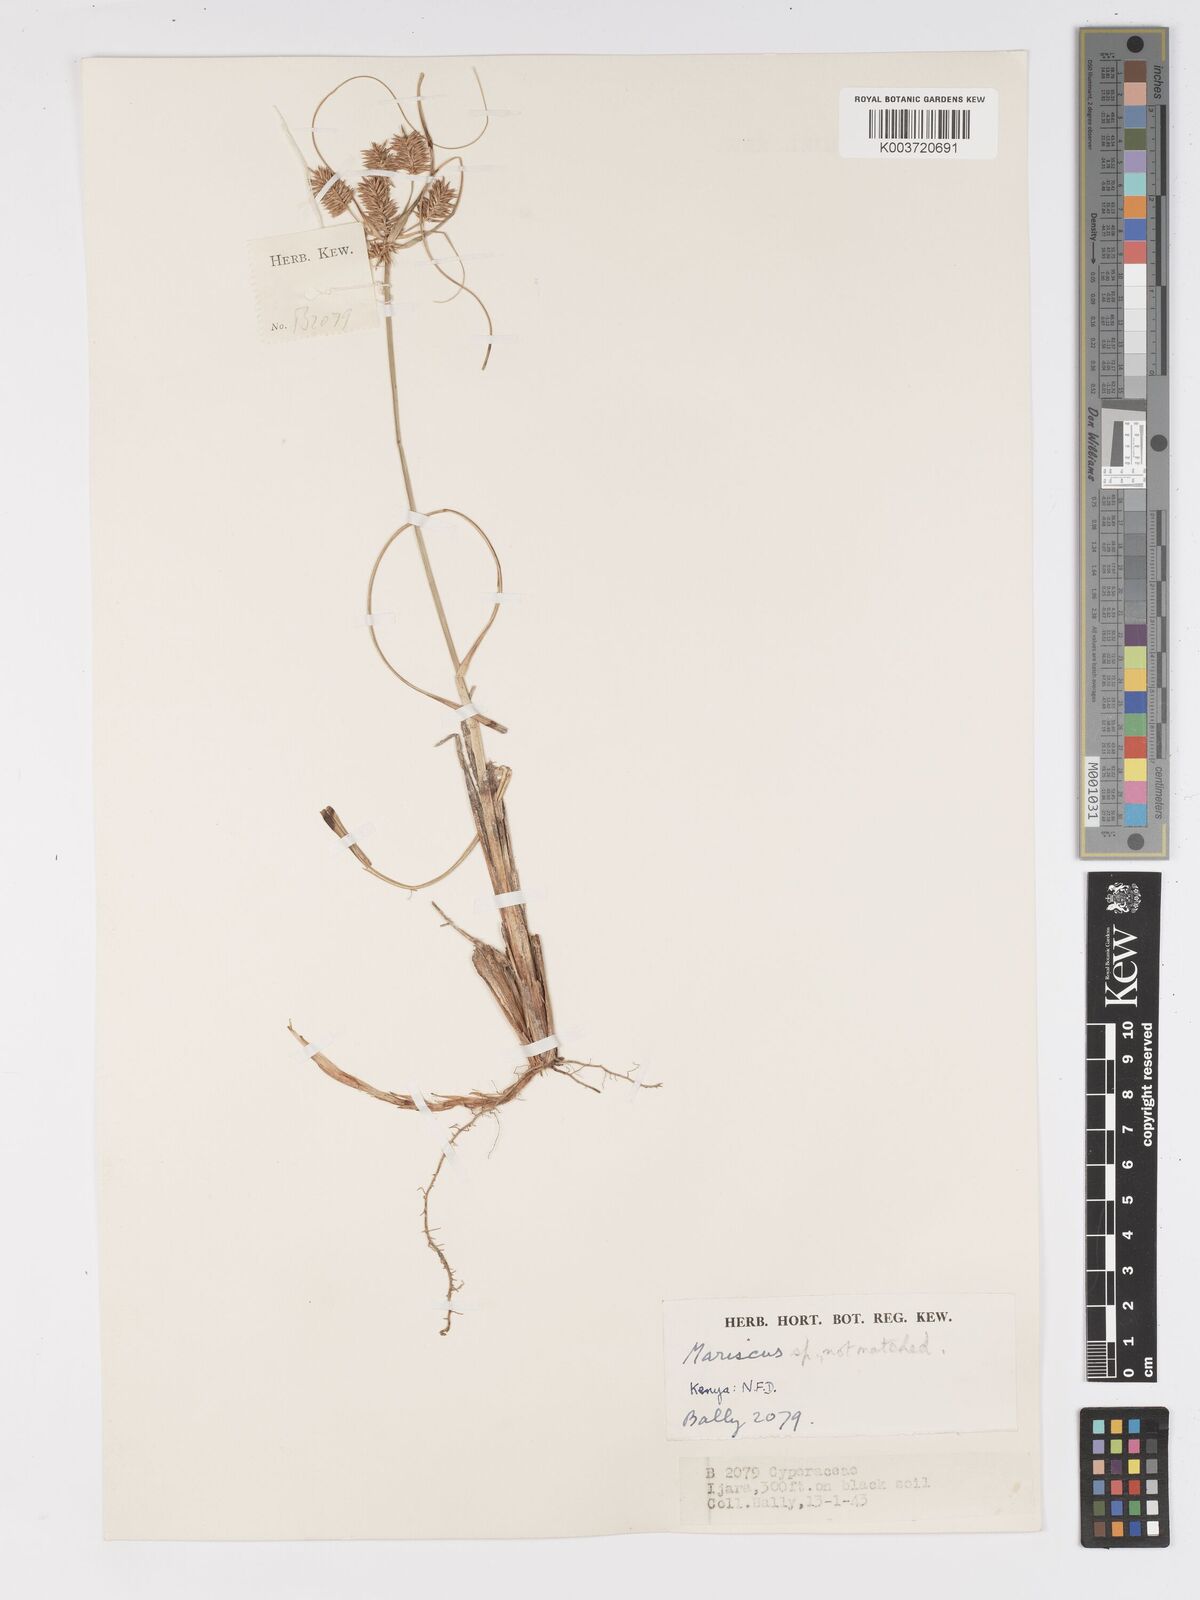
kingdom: Plantae
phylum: Tracheophyta
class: Liliopsida
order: Poales
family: Cyperaceae
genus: Cyperus
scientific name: Cyperus rohlfsii
